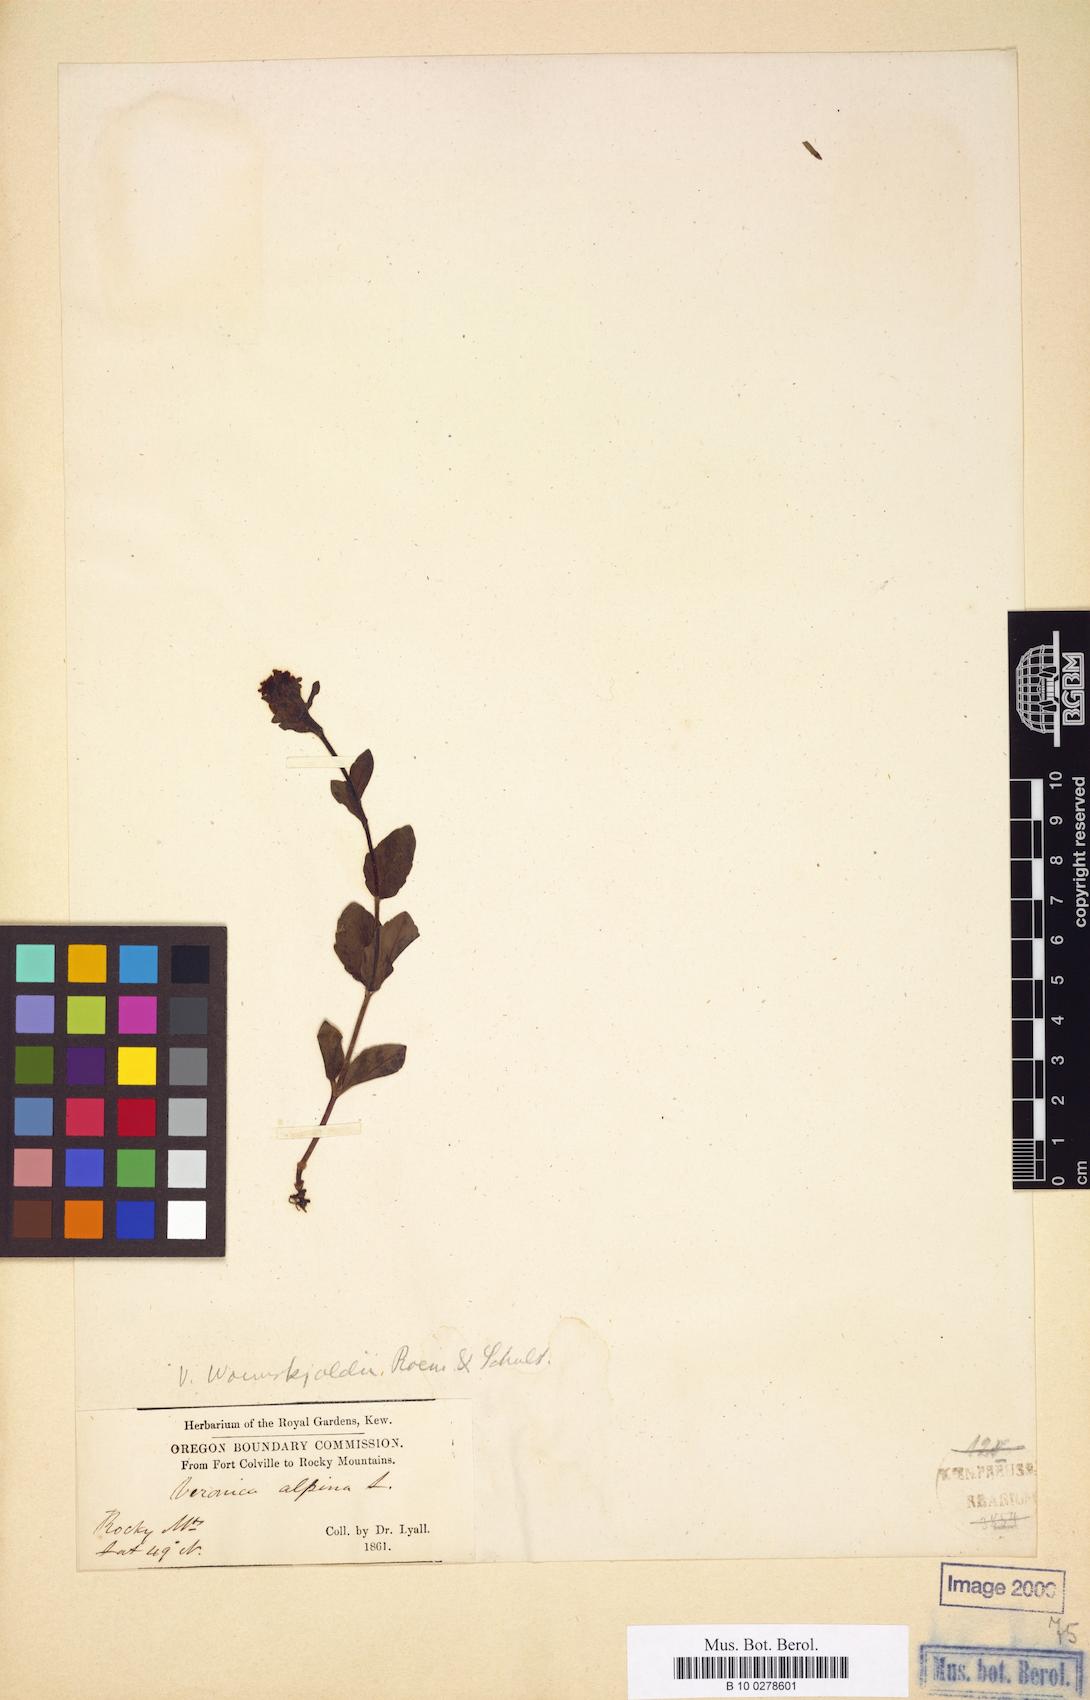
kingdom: Plantae
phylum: Tracheophyta
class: Magnoliopsida
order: Lamiales
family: Plantaginaceae
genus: Veronica
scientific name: Veronica wormskjoldii
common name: American alpine speedwell
